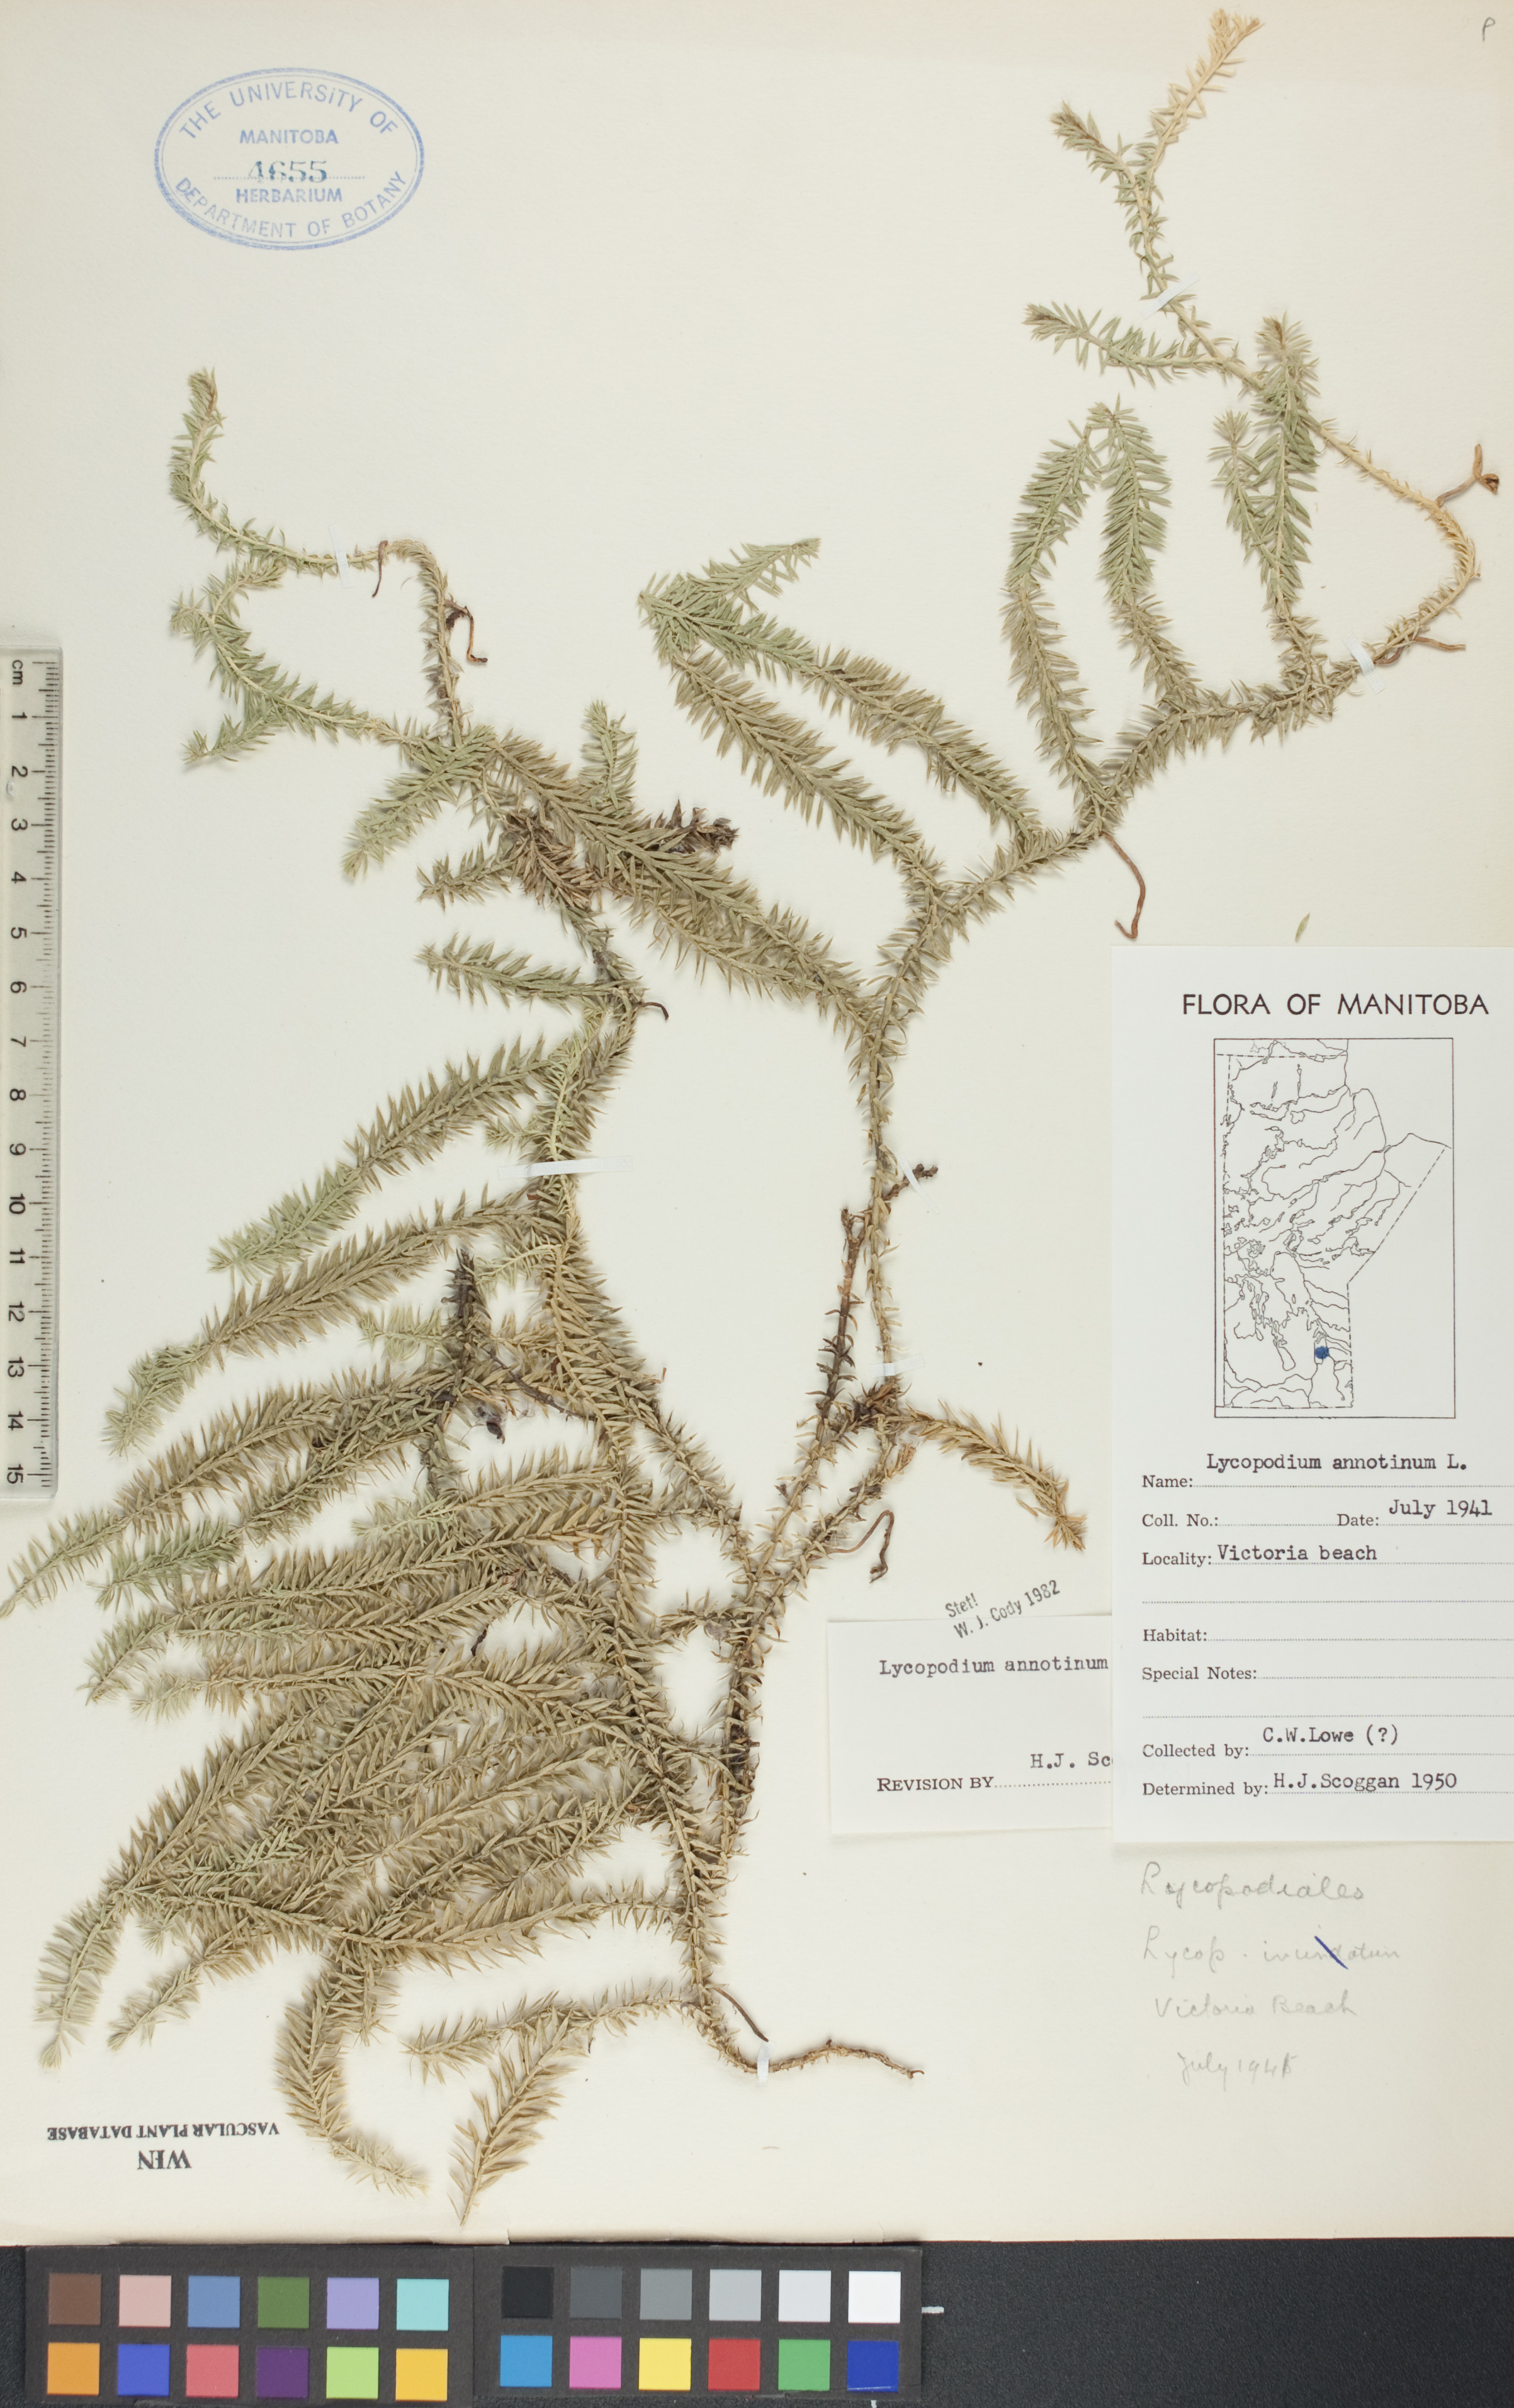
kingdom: Plantae
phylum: Tracheophyta
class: Lycopodiopsida
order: Lycopodiales
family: Lycopodiaceae
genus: Spinulum
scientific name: Spinulum annotinum
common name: Interrupted club-moss
